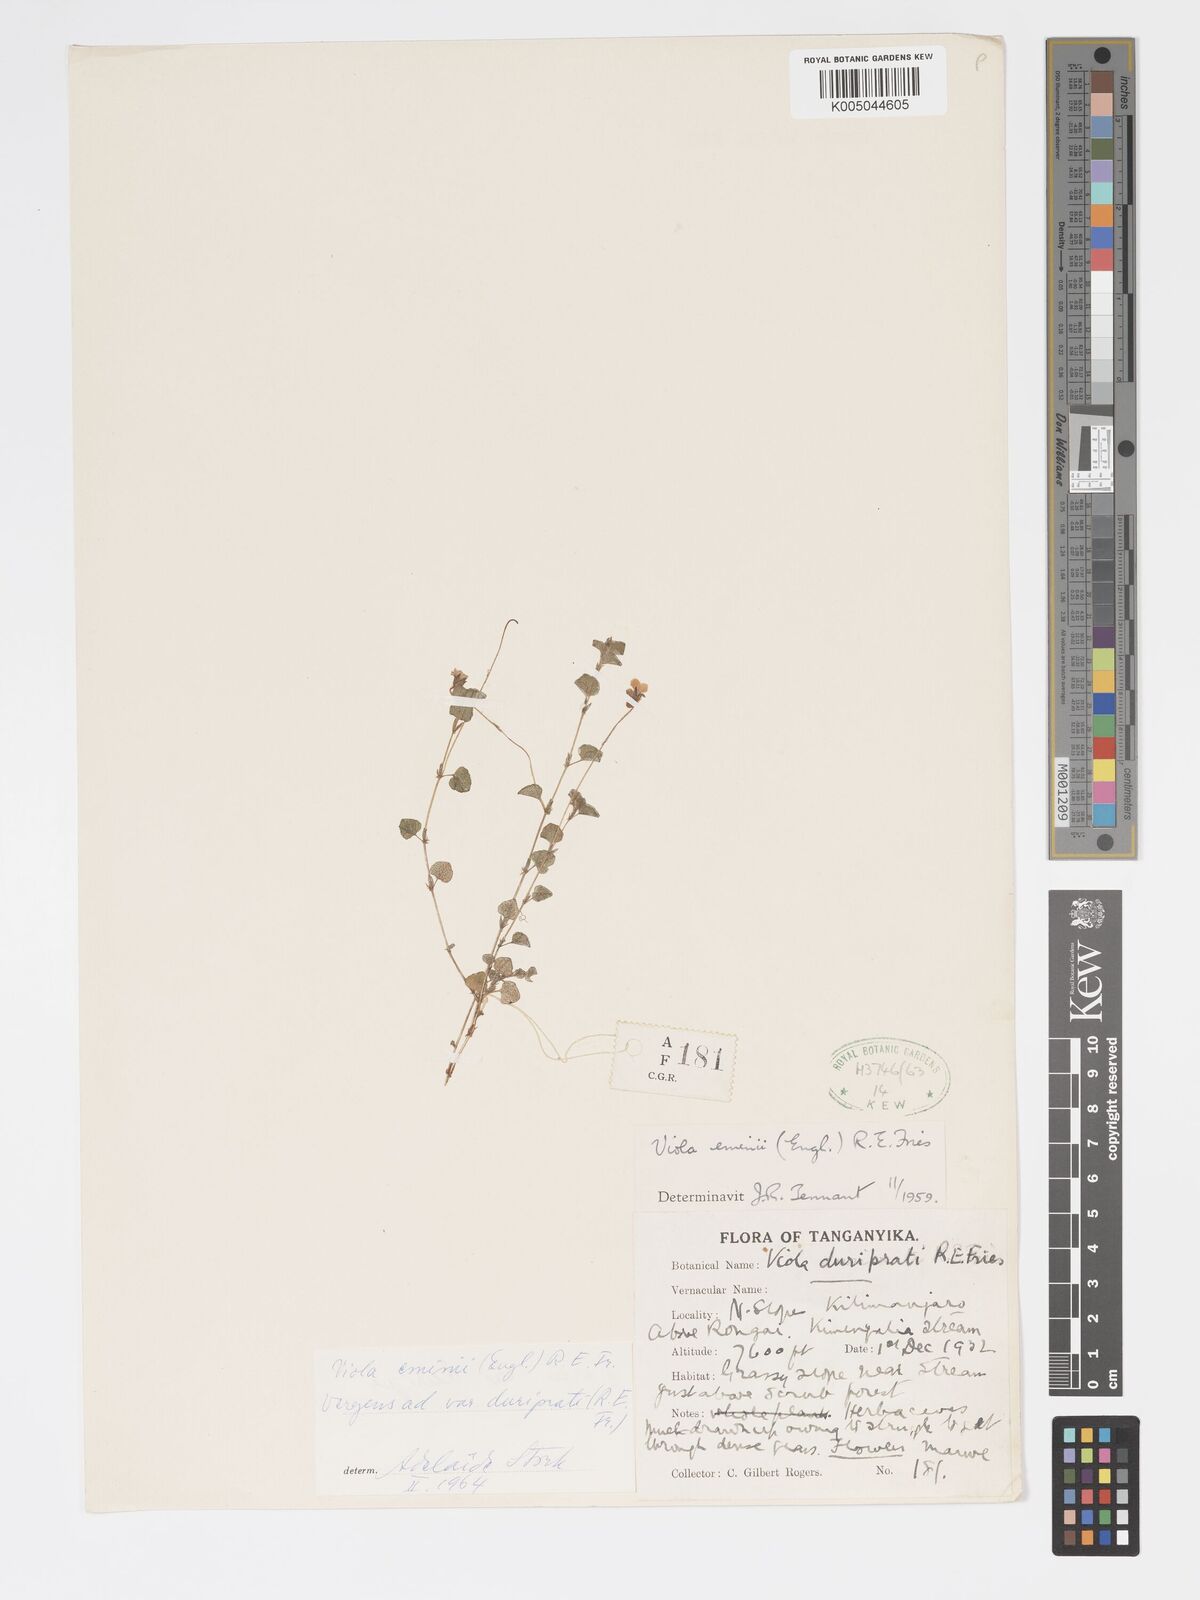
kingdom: Plantae
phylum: Tracheophyta
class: Magnoliopsida
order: Malpighiales
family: Violaceae
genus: Viola
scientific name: Viola abyssinica
